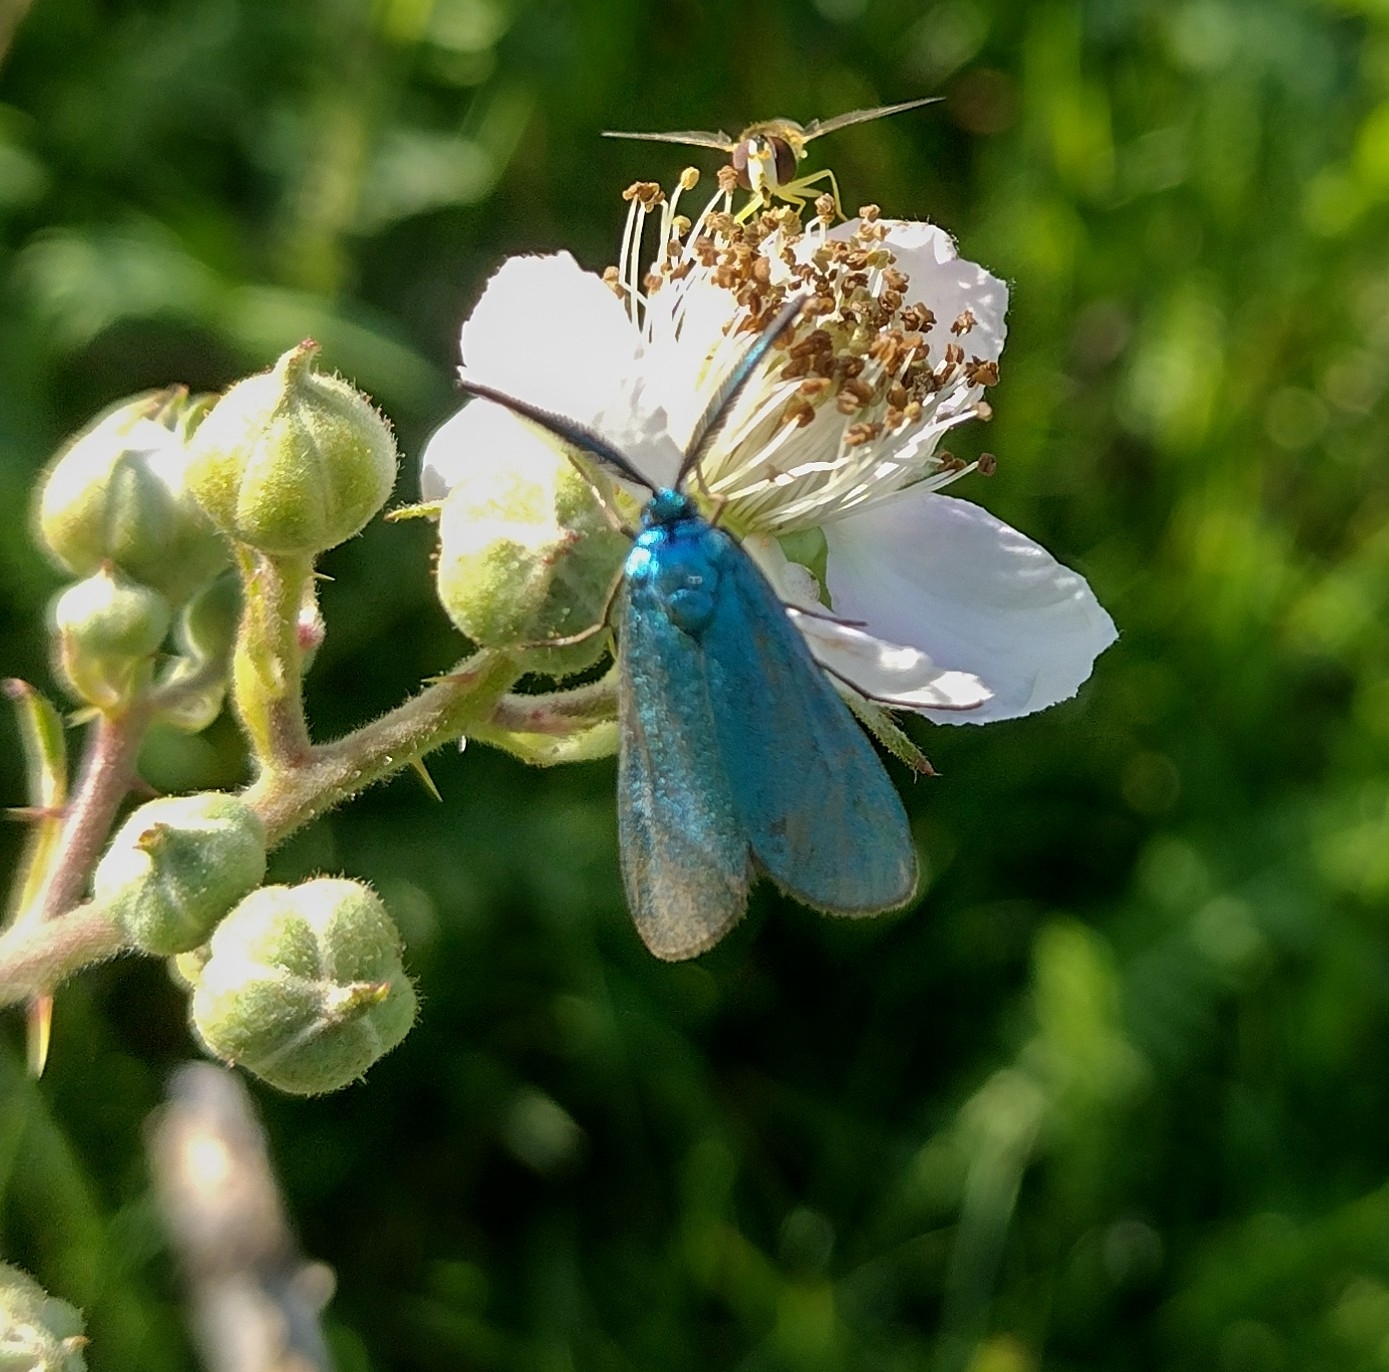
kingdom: Animalia
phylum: Arthropoda
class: Insecta
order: Lepidoptera
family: Zygaenidae
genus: Adscita
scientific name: Adscita statices
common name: Metalvinge
